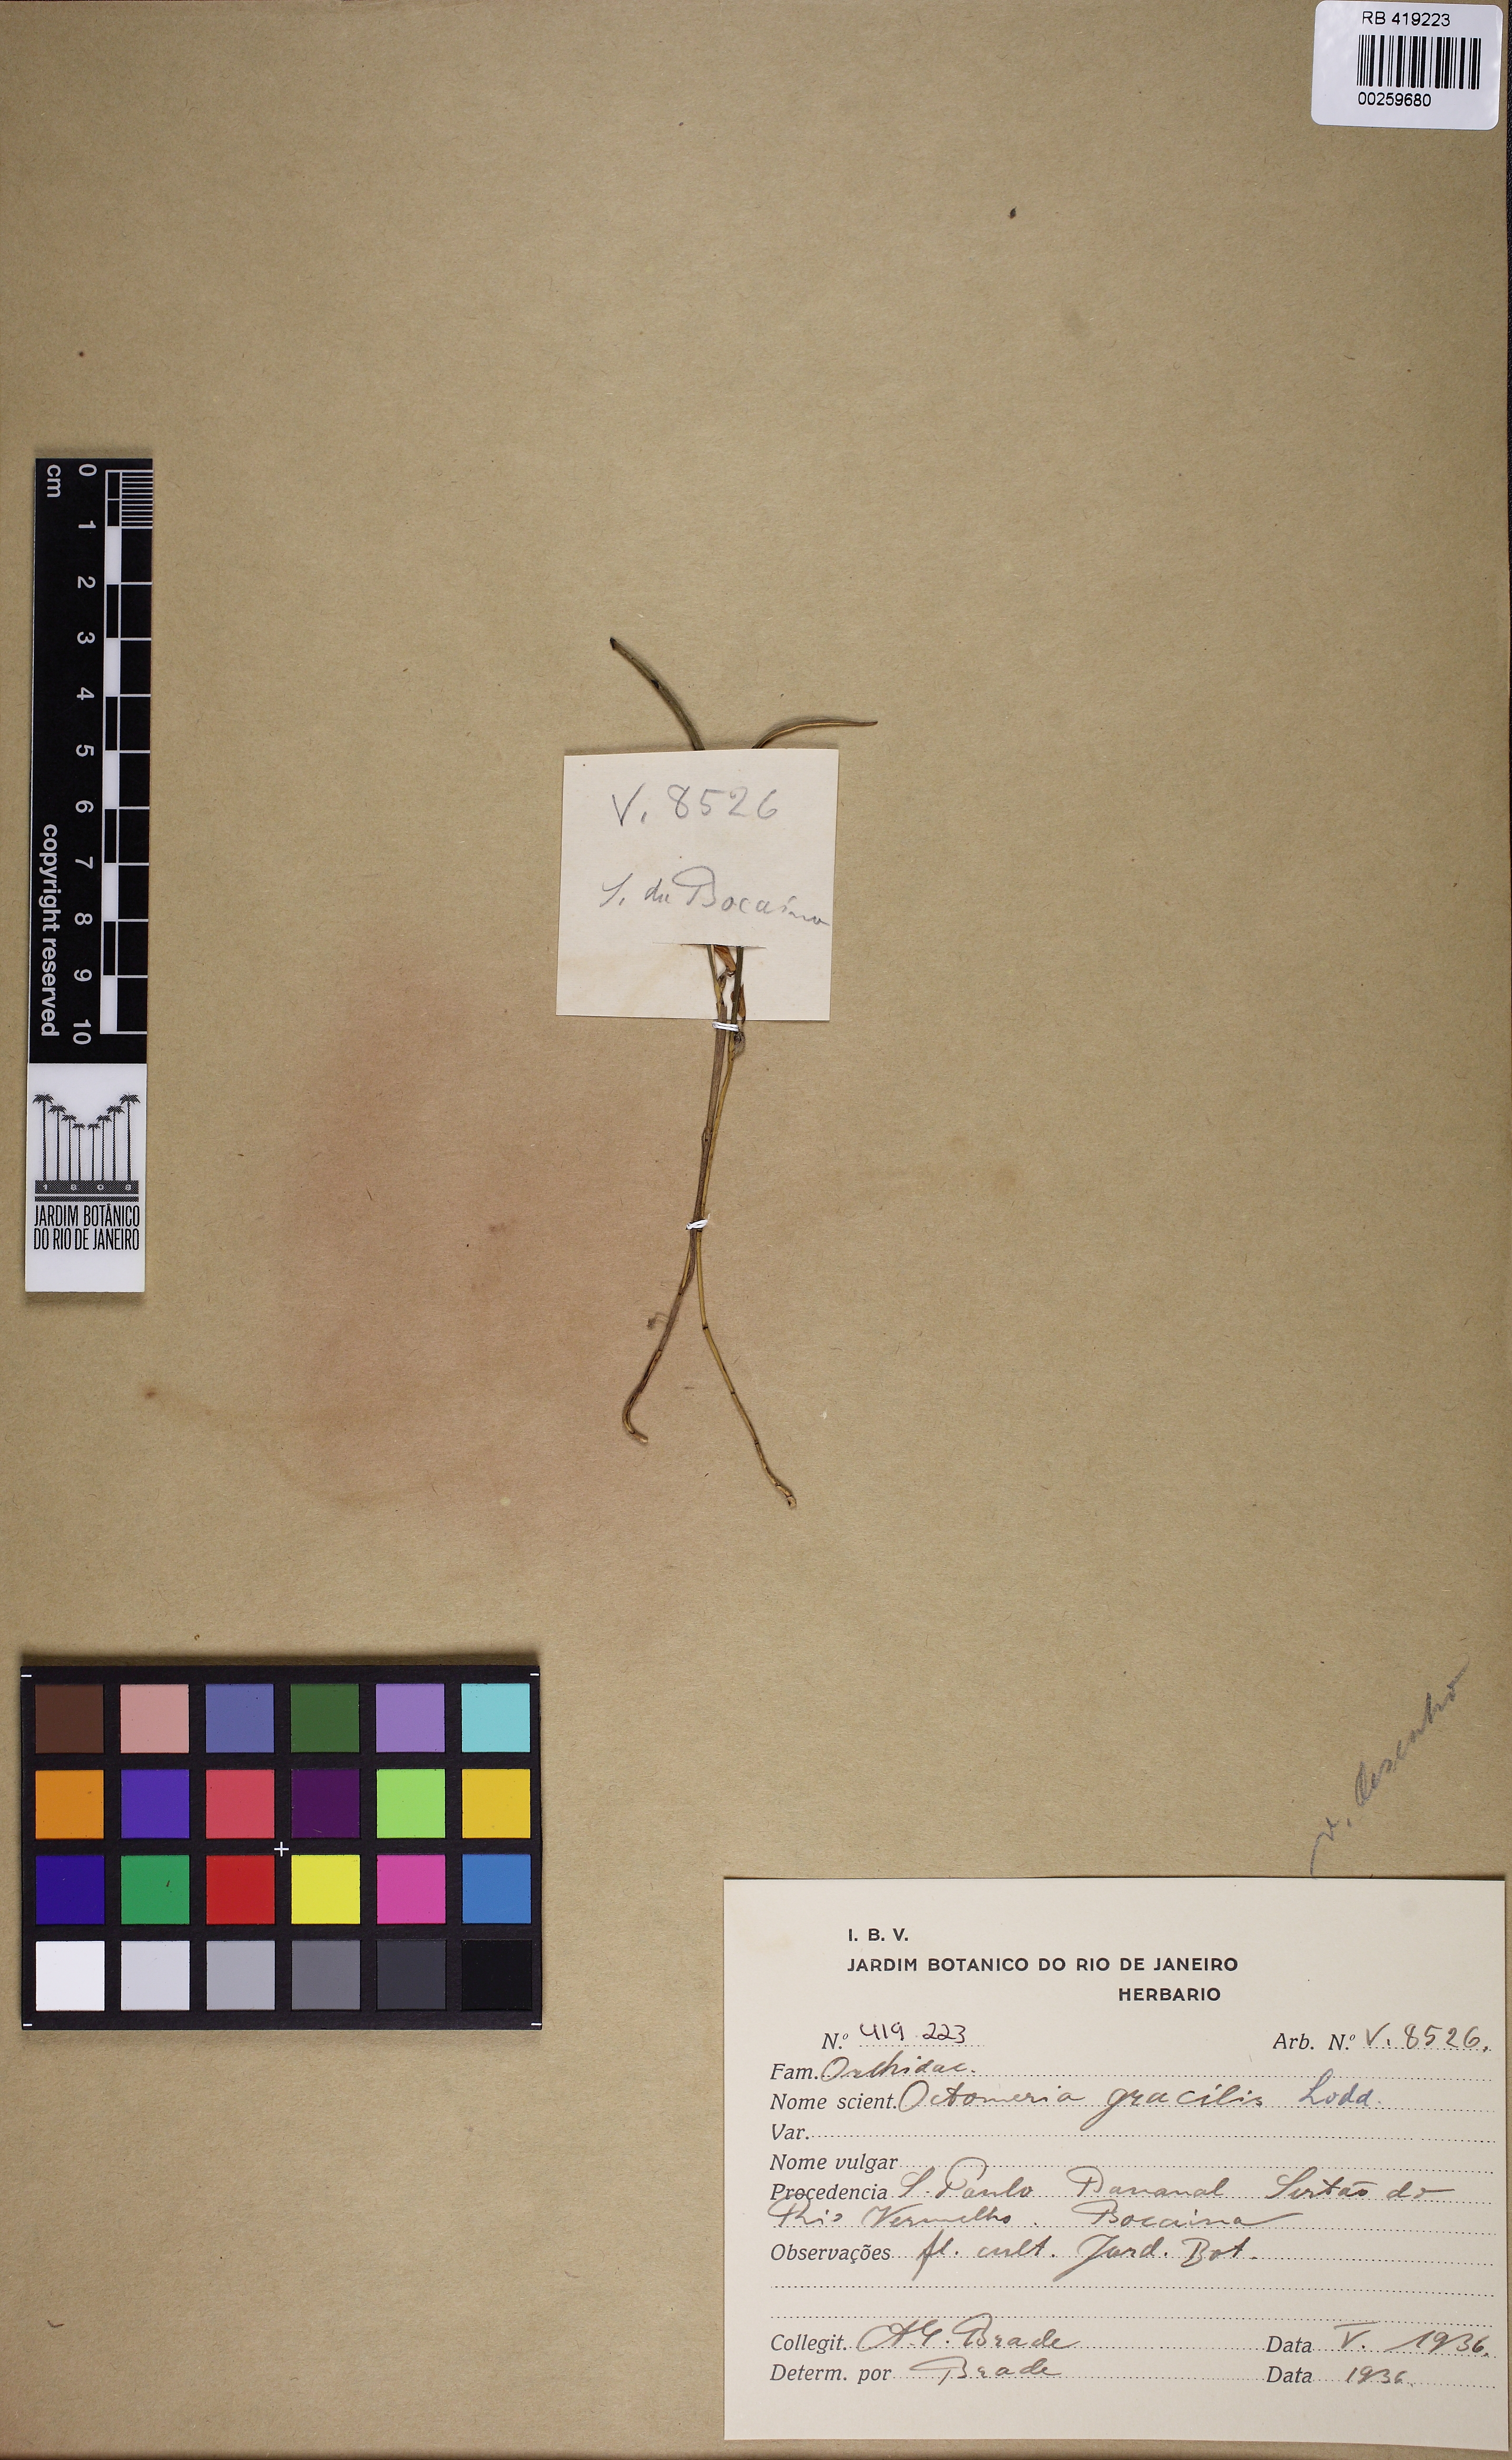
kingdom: Plantae
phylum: Tracheophyta
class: Liliopsida
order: Asparagales
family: Orchidaceae
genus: Octomeria
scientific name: Octomeria gracilis
